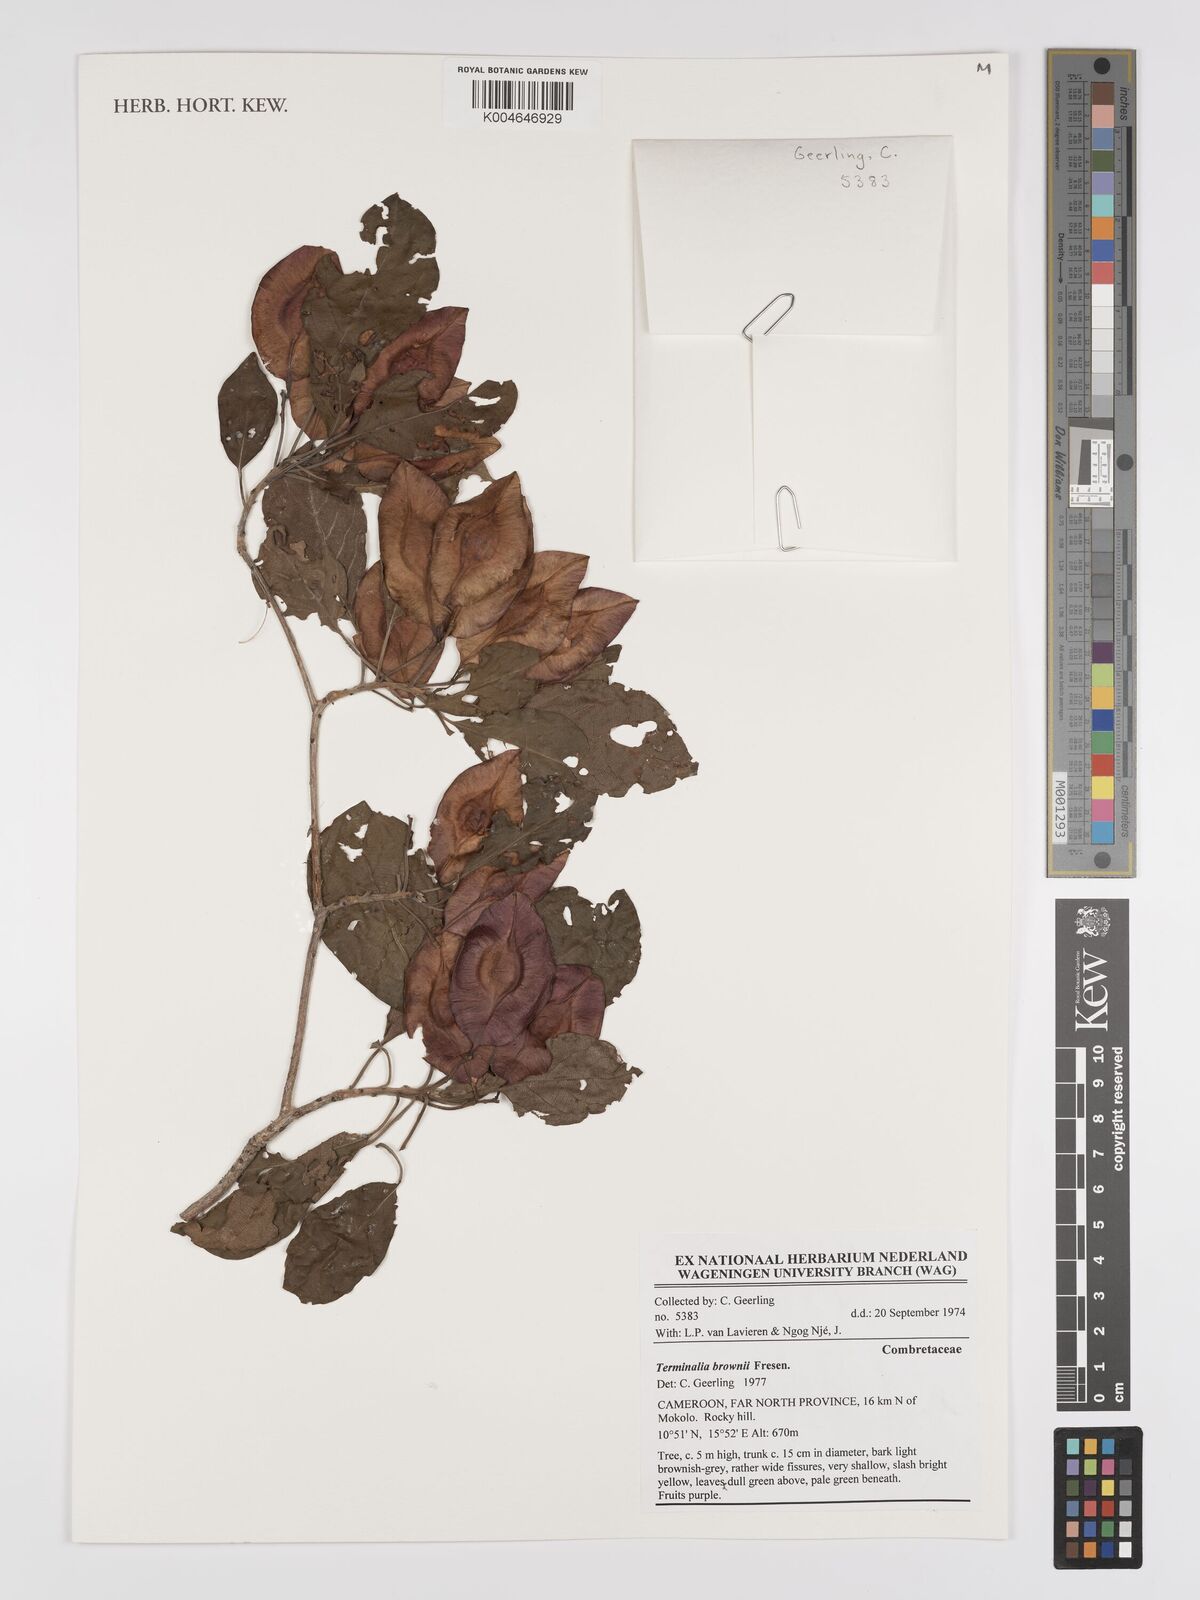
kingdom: Plantae
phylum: Tracheophyta
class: Magnoliopsida
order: Myrtales
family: Combretaceae
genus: Terminalia
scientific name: Terminalia brownii
